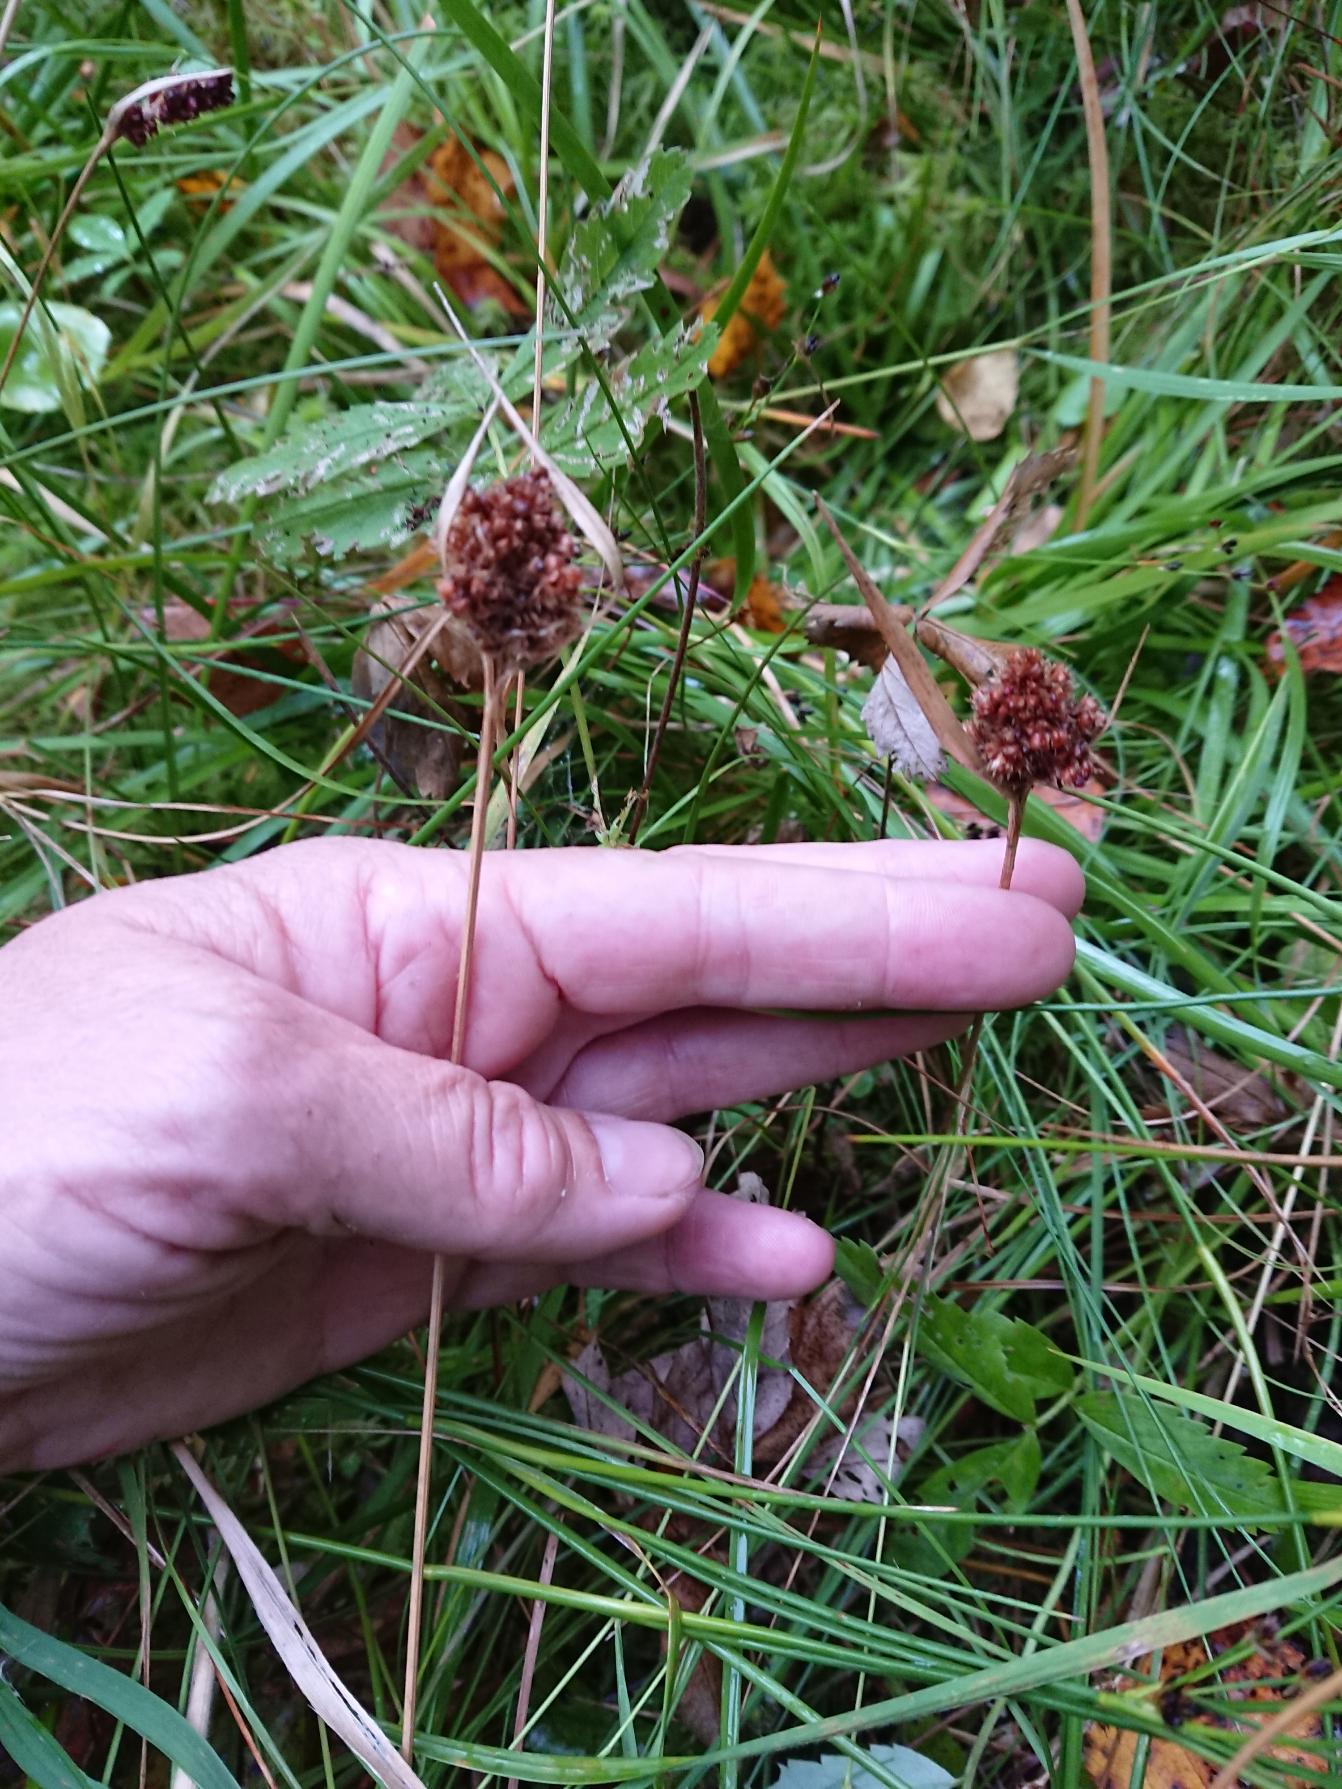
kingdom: Plantae
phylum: Tracheophyta
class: Liliopsida
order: Poales
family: Juncaceae
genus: Luzula
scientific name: Luzula congesta
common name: Hoved-frytle
